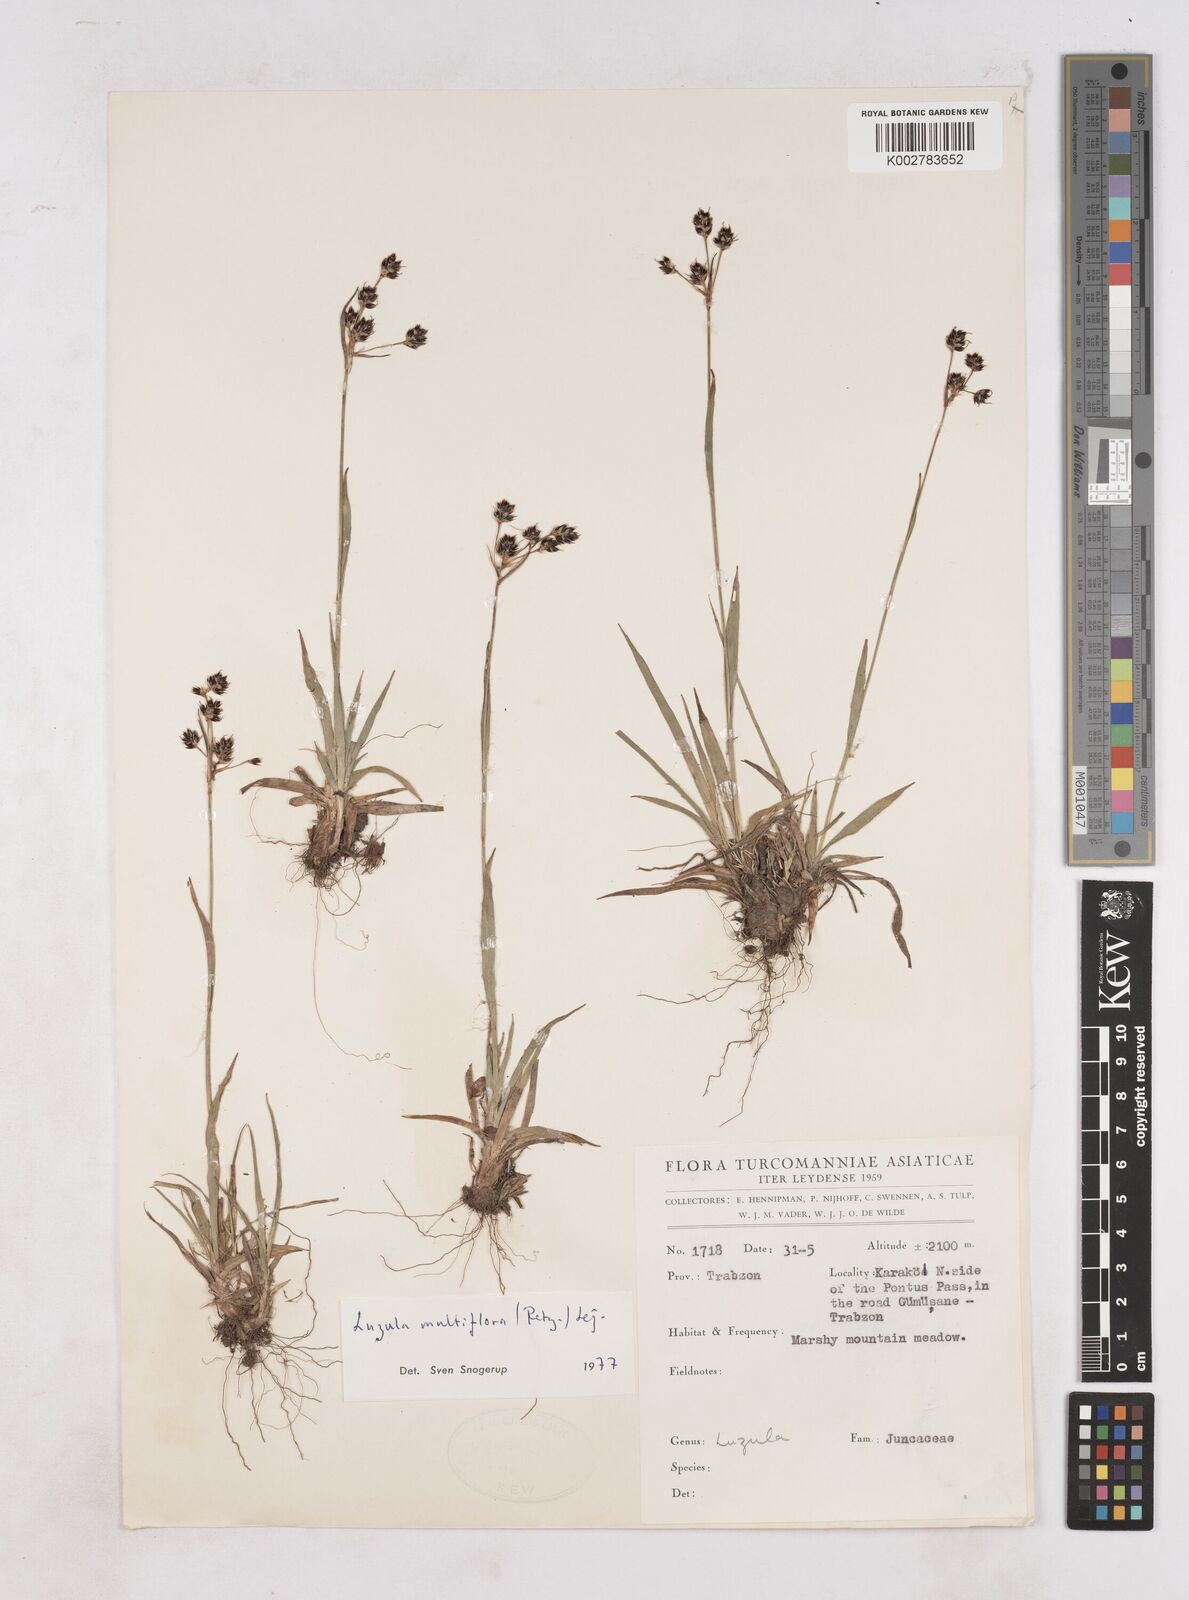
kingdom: Plantae
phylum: Tracheophyta
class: Liliopsida
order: Poales
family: Juncaceae
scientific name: Juncaceae
